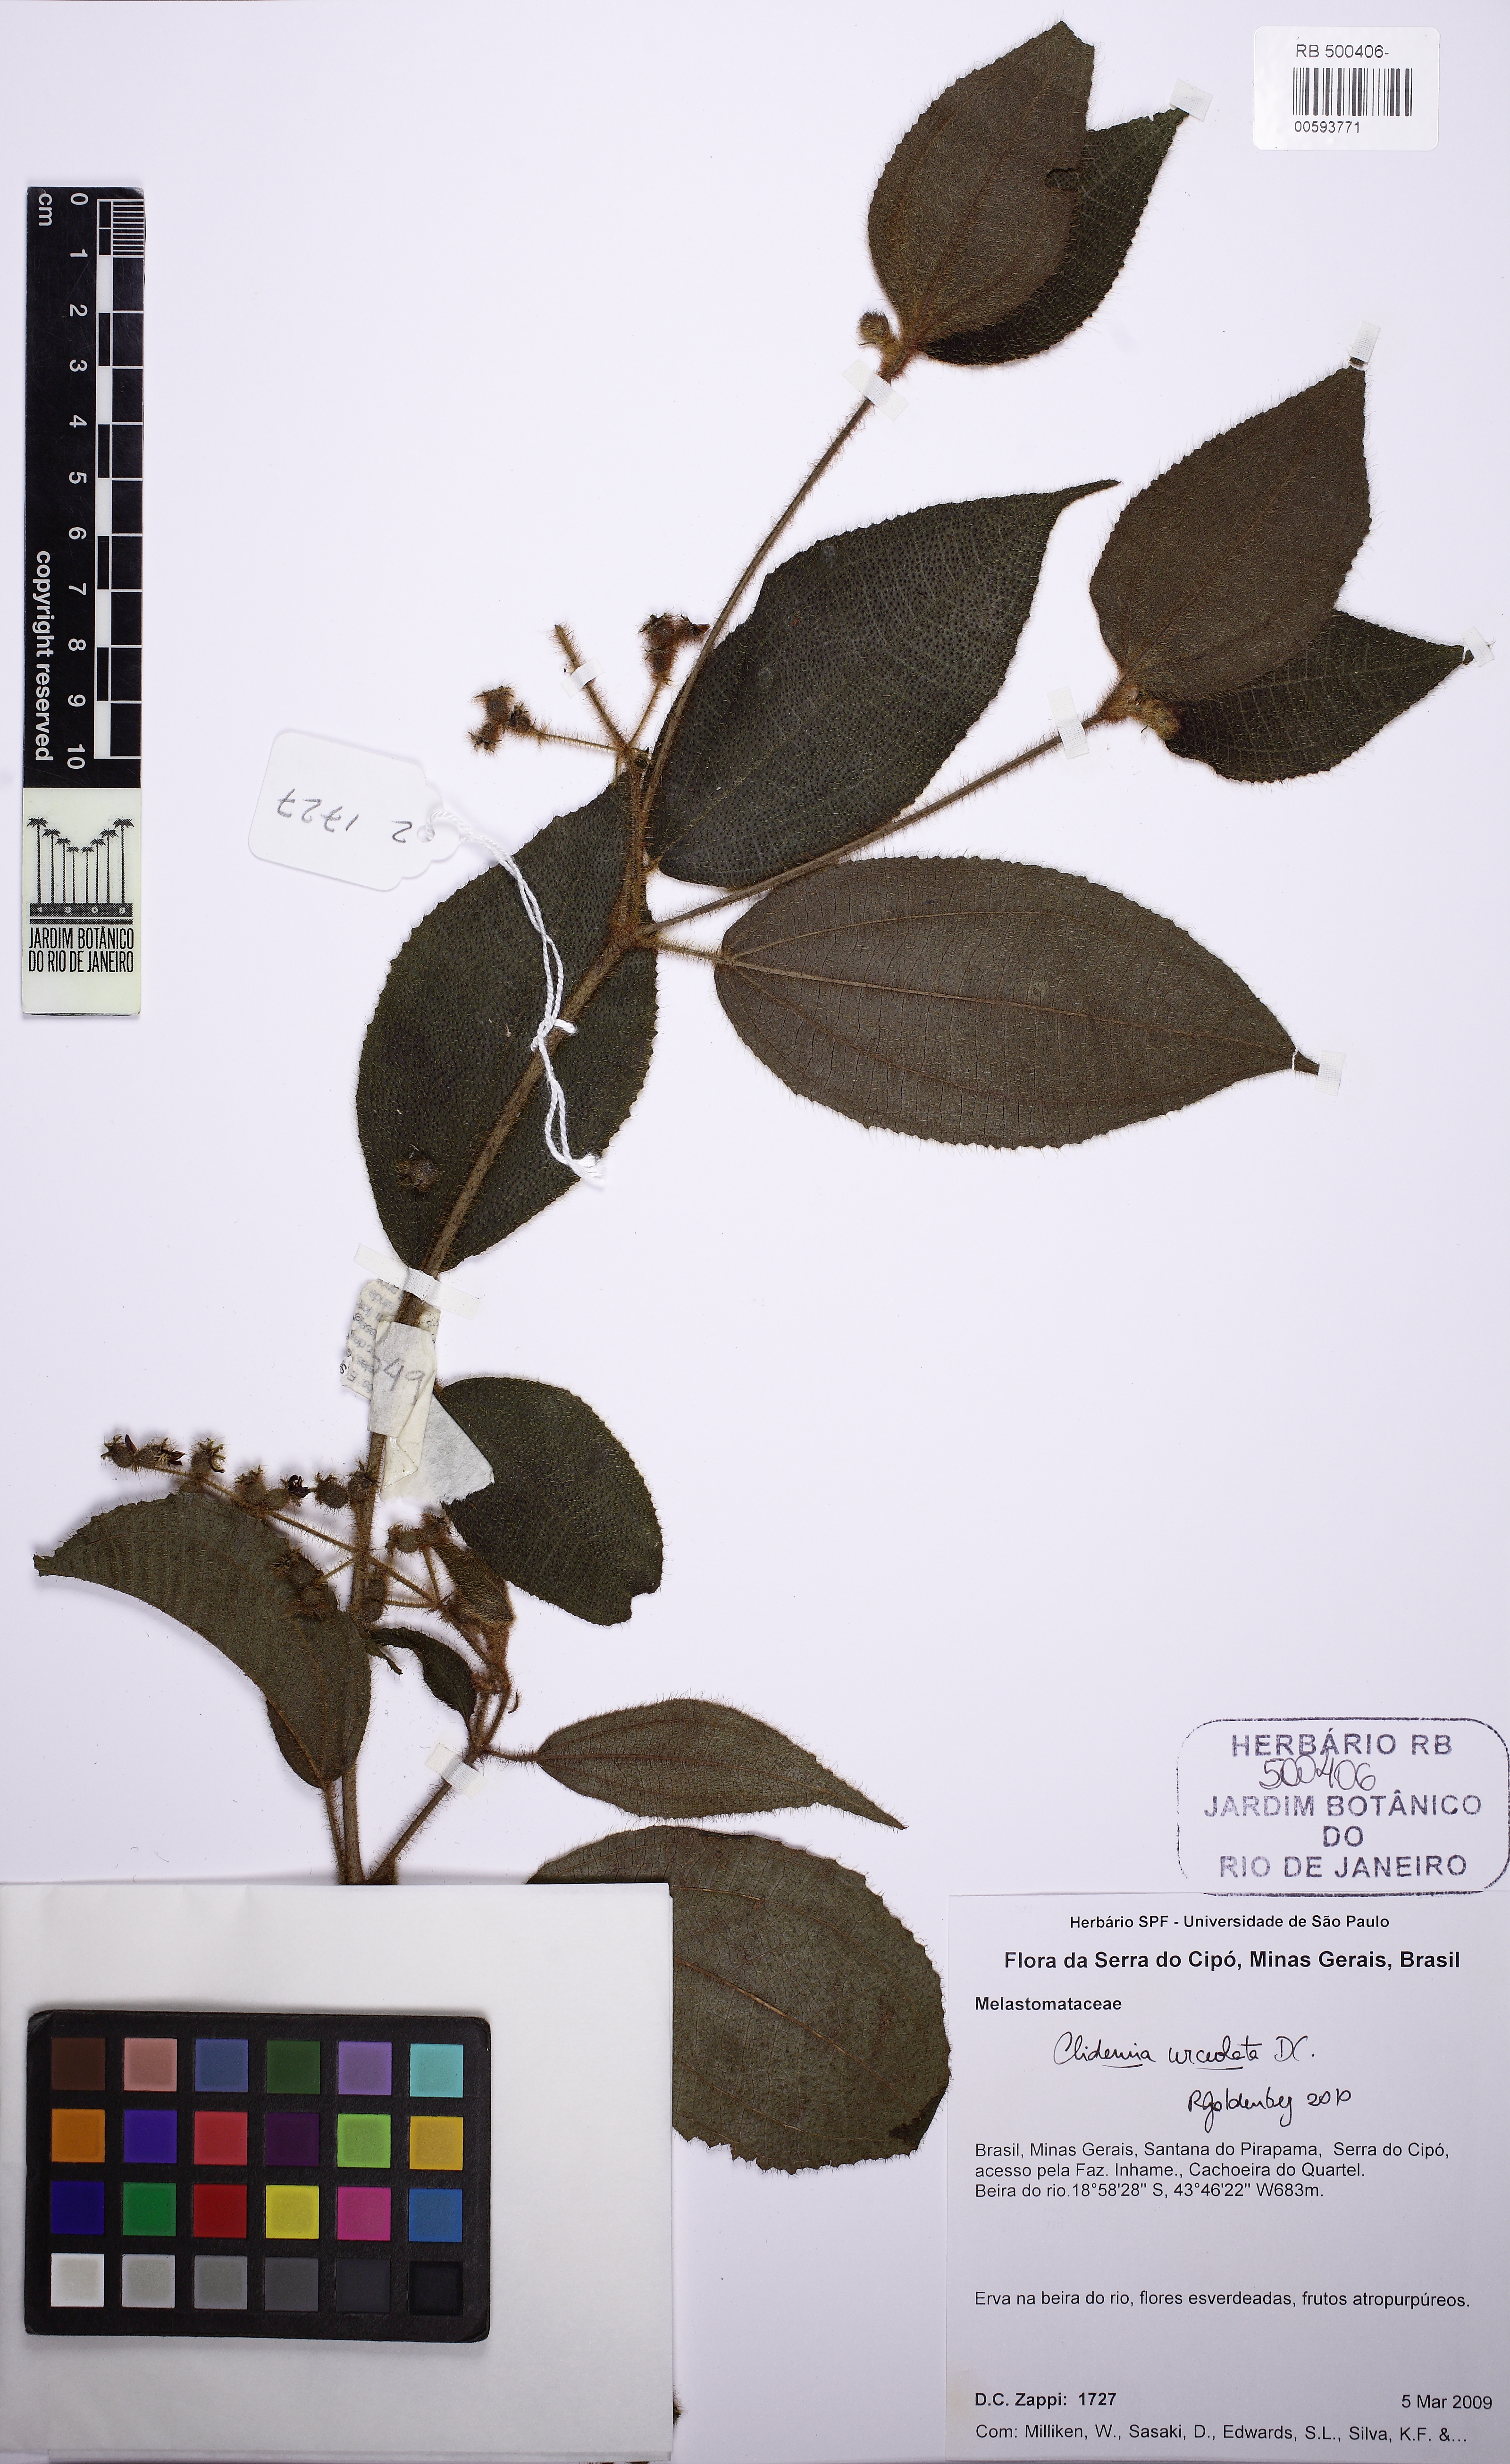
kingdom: Plantae
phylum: Tracheophyta
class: Magnoliopsida
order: Myrtales
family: Melastomataceae
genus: Miconia
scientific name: Miconia neourceolata
